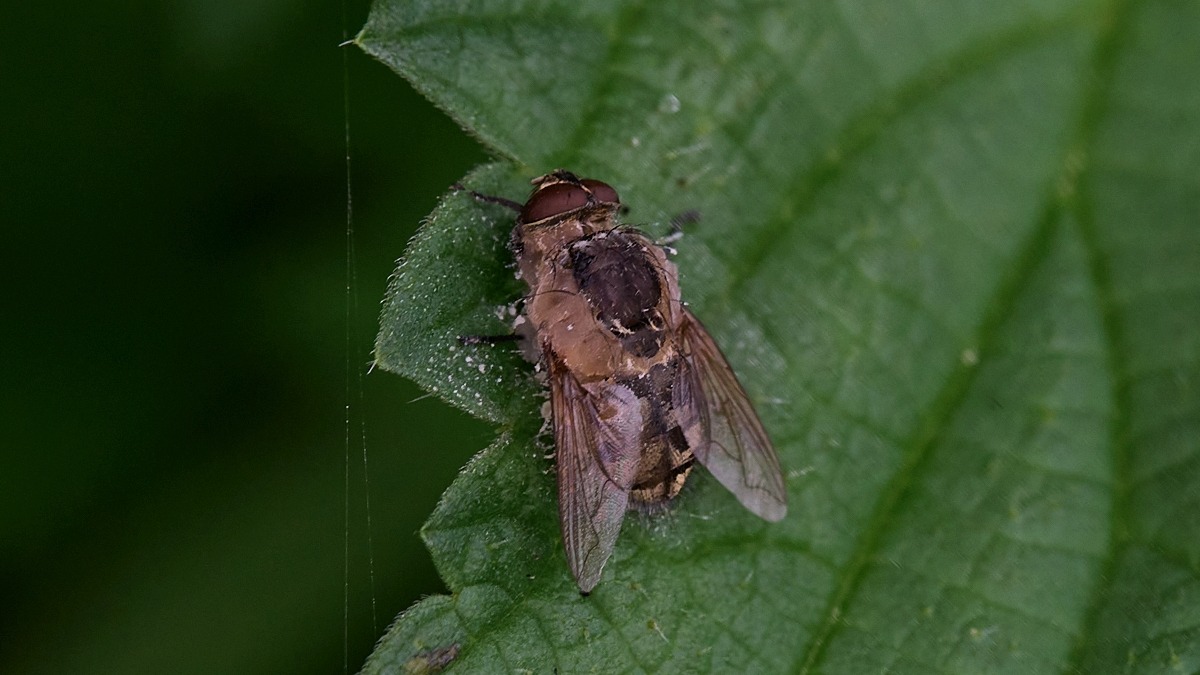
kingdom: Animalia
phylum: Arthropoda
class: Insecta
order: Diptera
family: Polleniidae
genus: Pollenia
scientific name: Pollenia
